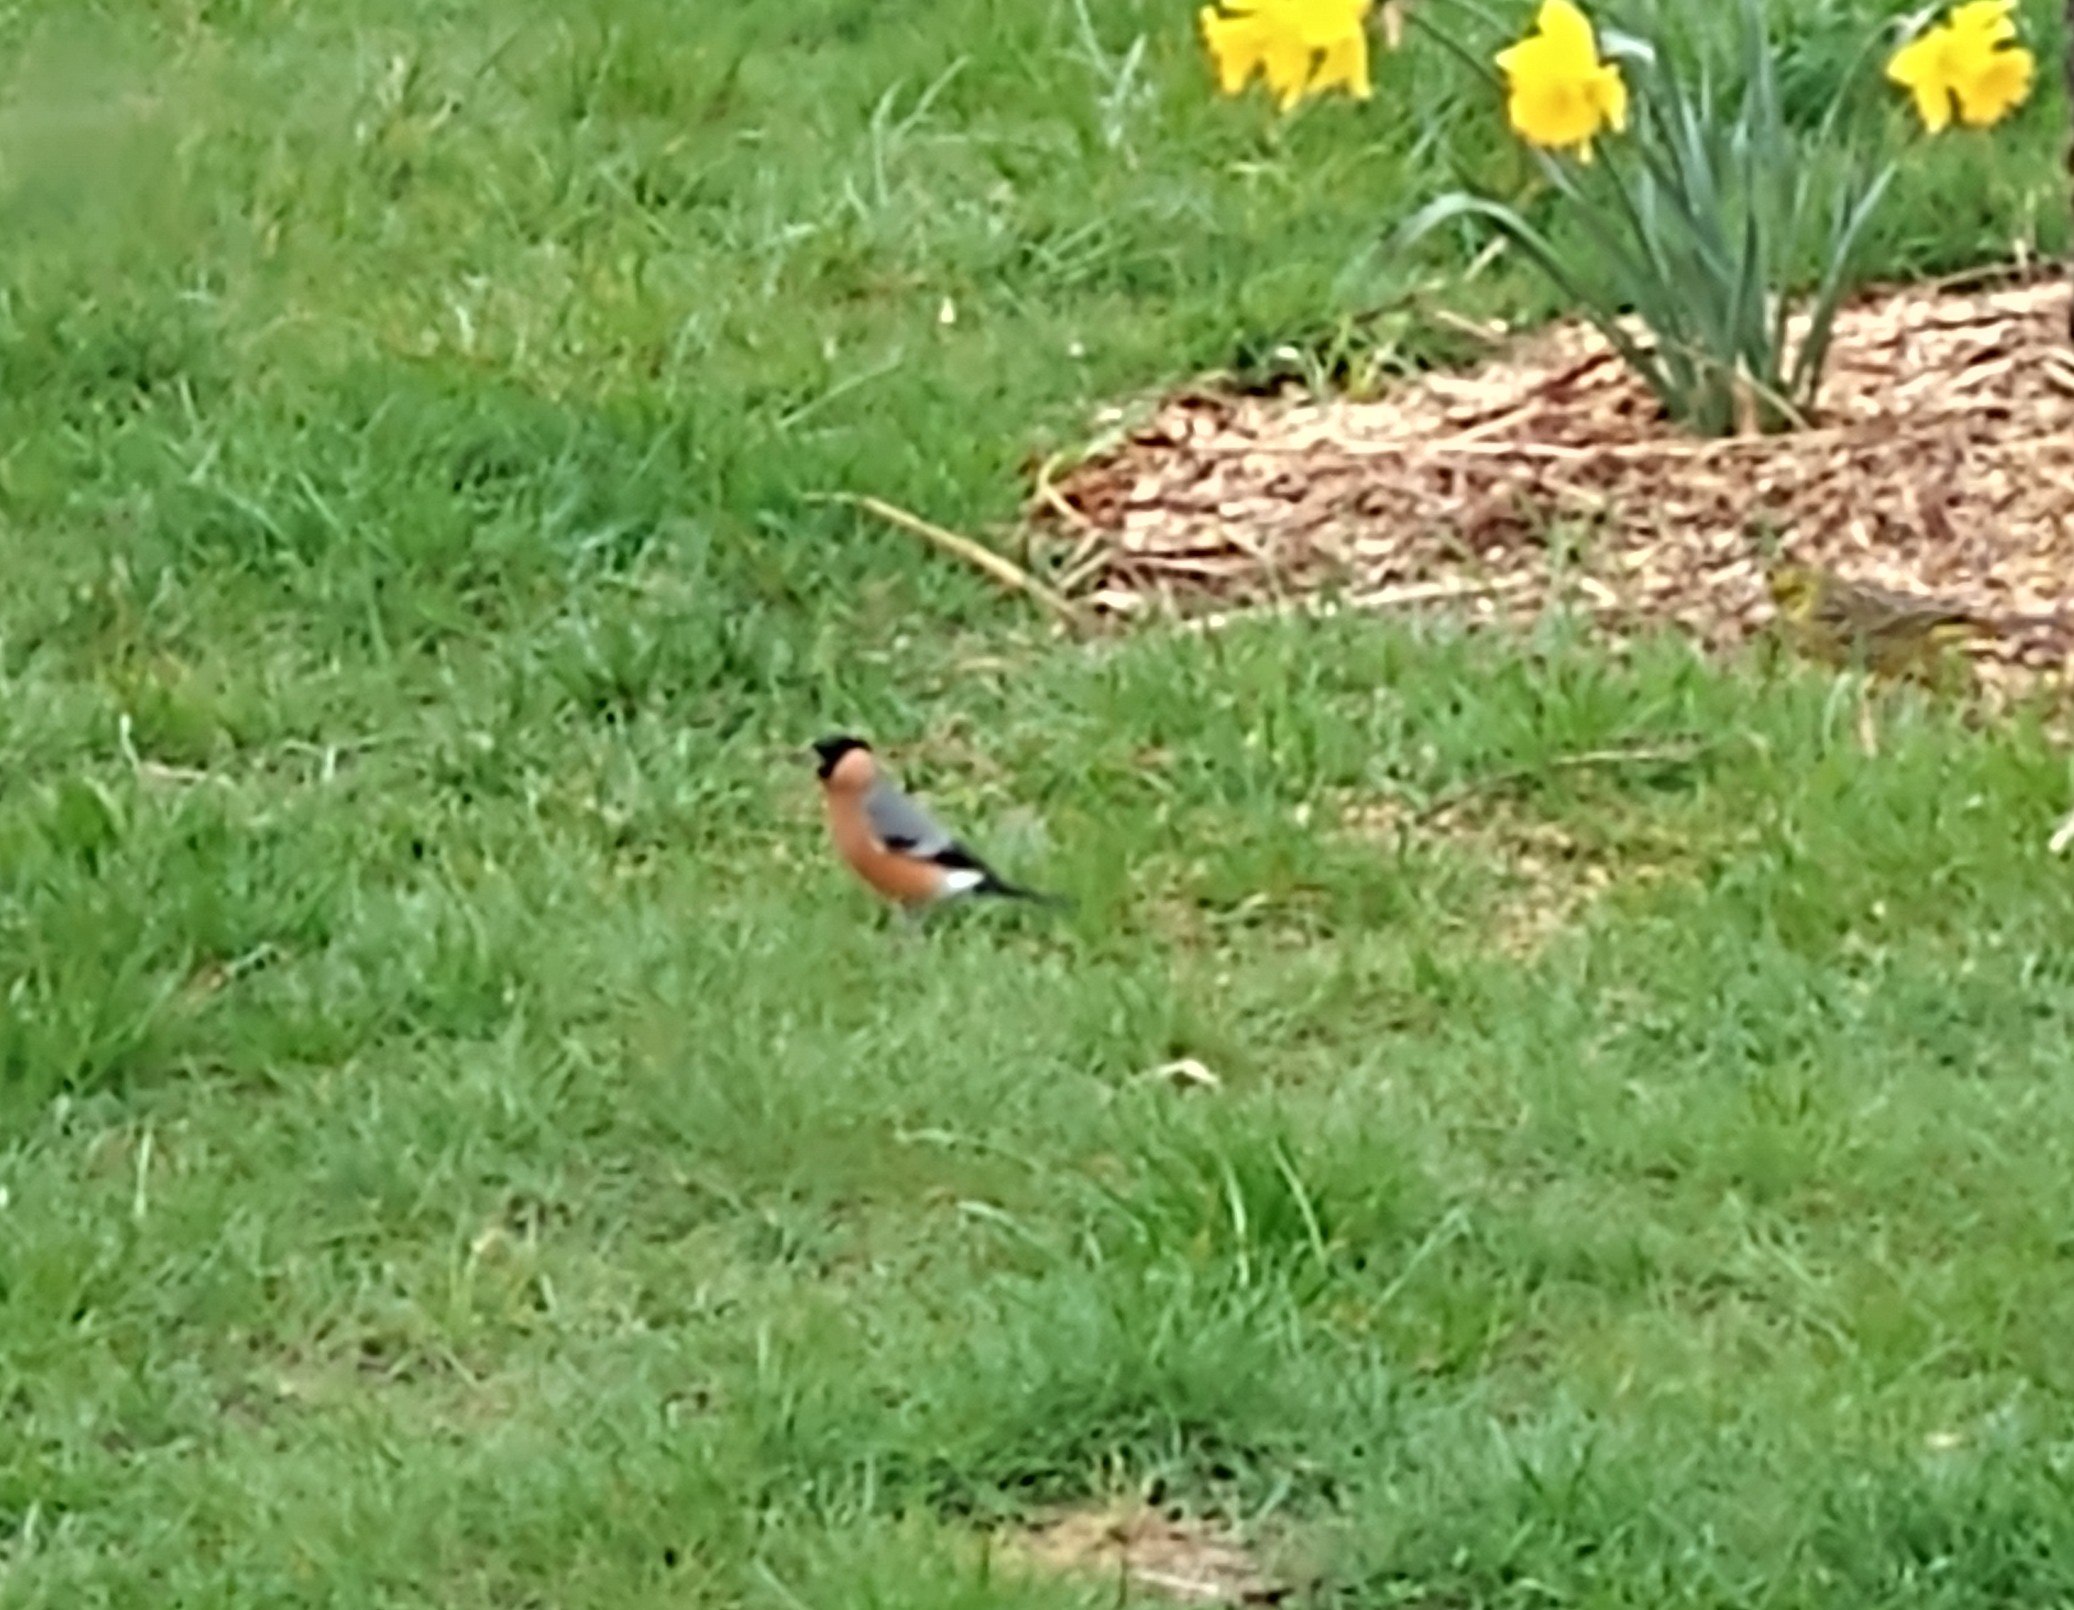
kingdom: Animalia
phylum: Chordata
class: Aves
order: Passeriformes
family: Fringillidae
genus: Pyrrhula
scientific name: Pyrrhula pyrrhula
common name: Dompap
